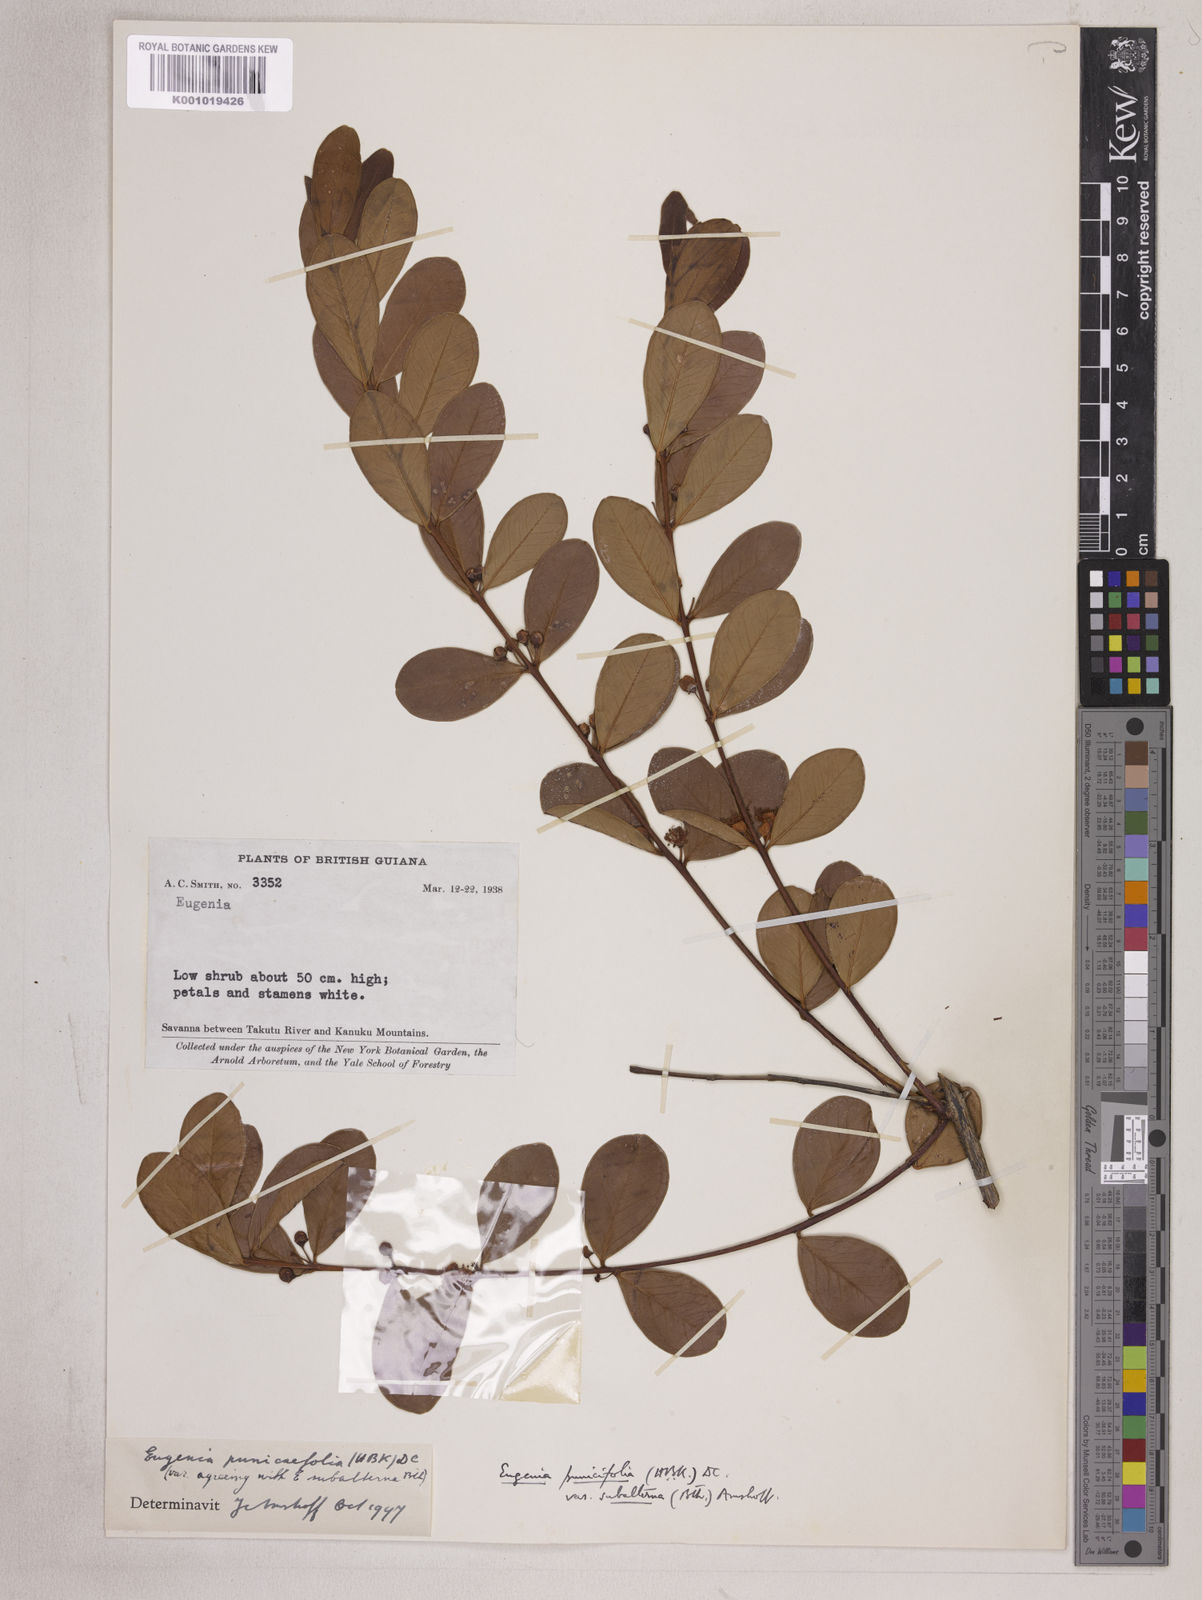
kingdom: Plantae
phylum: Tracheophyta
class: Magnoliopsida
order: Myrtales
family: Myrtaceae
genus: Eugenia
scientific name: Eugenia punicifolia
